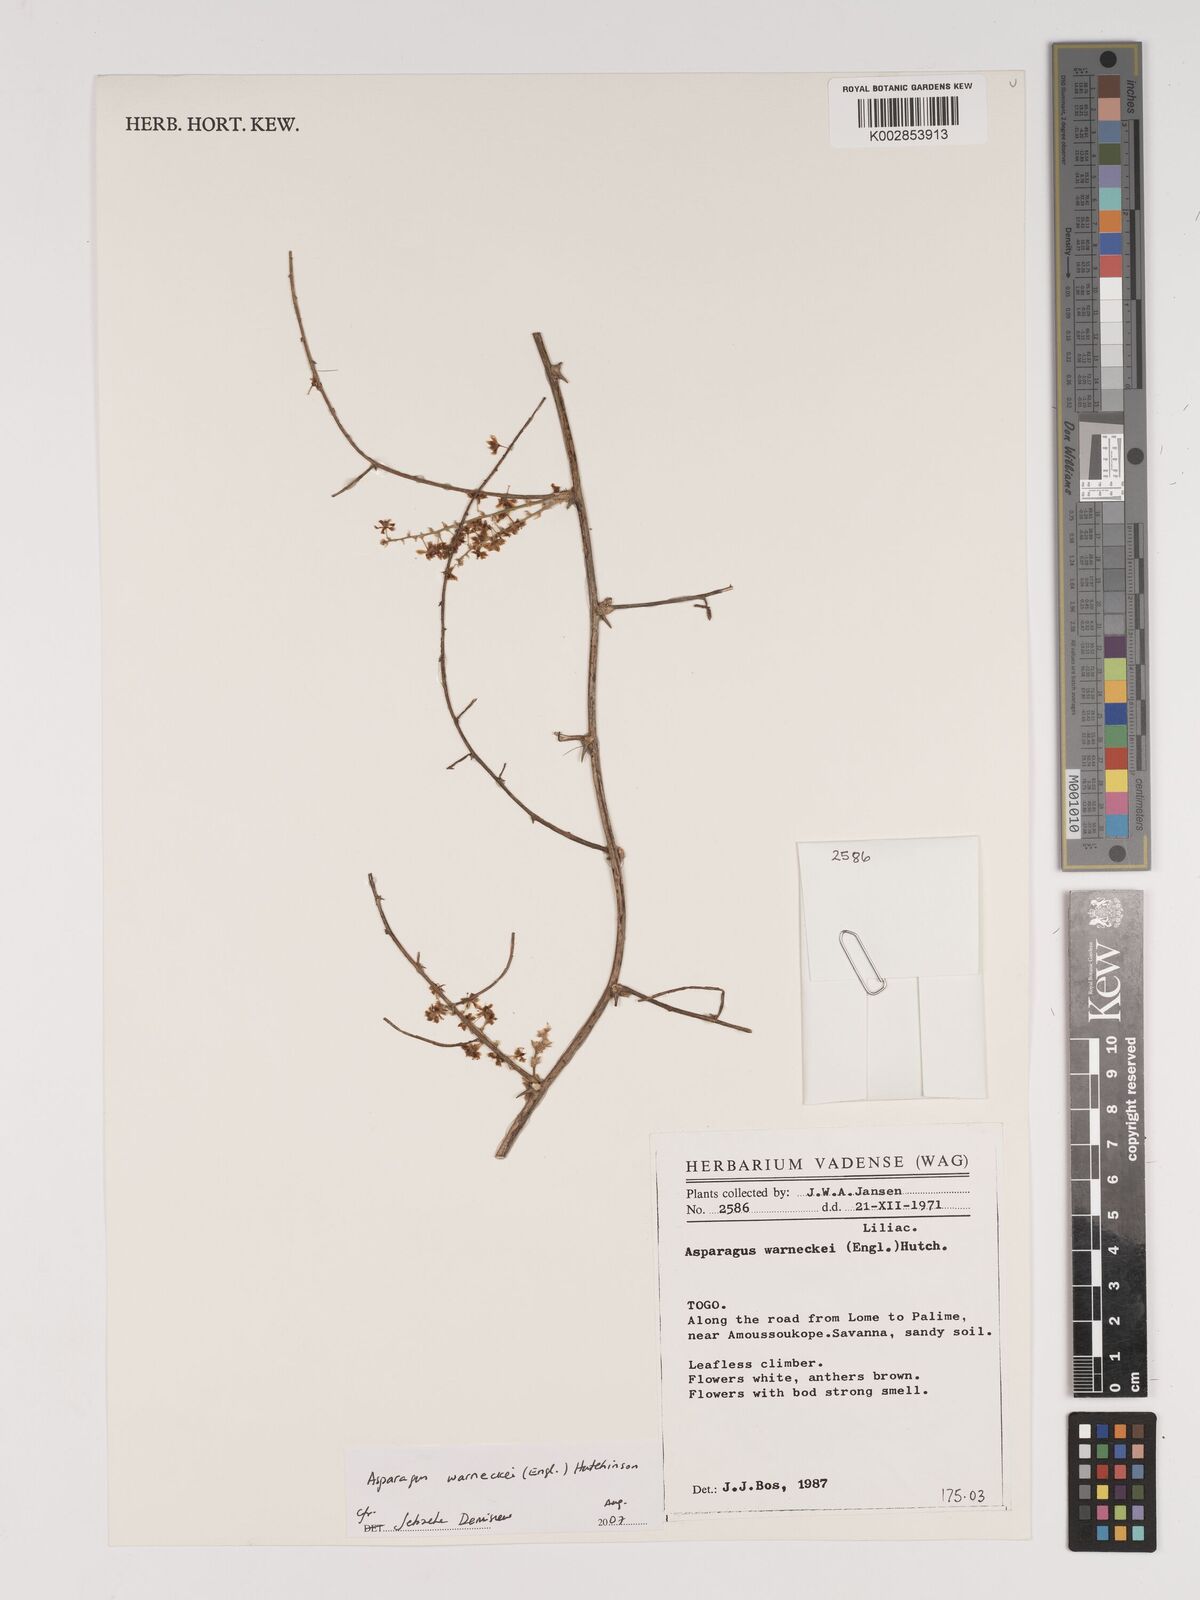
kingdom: Plantae
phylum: Tracheophyta
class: Liliopsida
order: Asparagales
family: Asparagaceae
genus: Asparagus
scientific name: Asparagus warneckei
